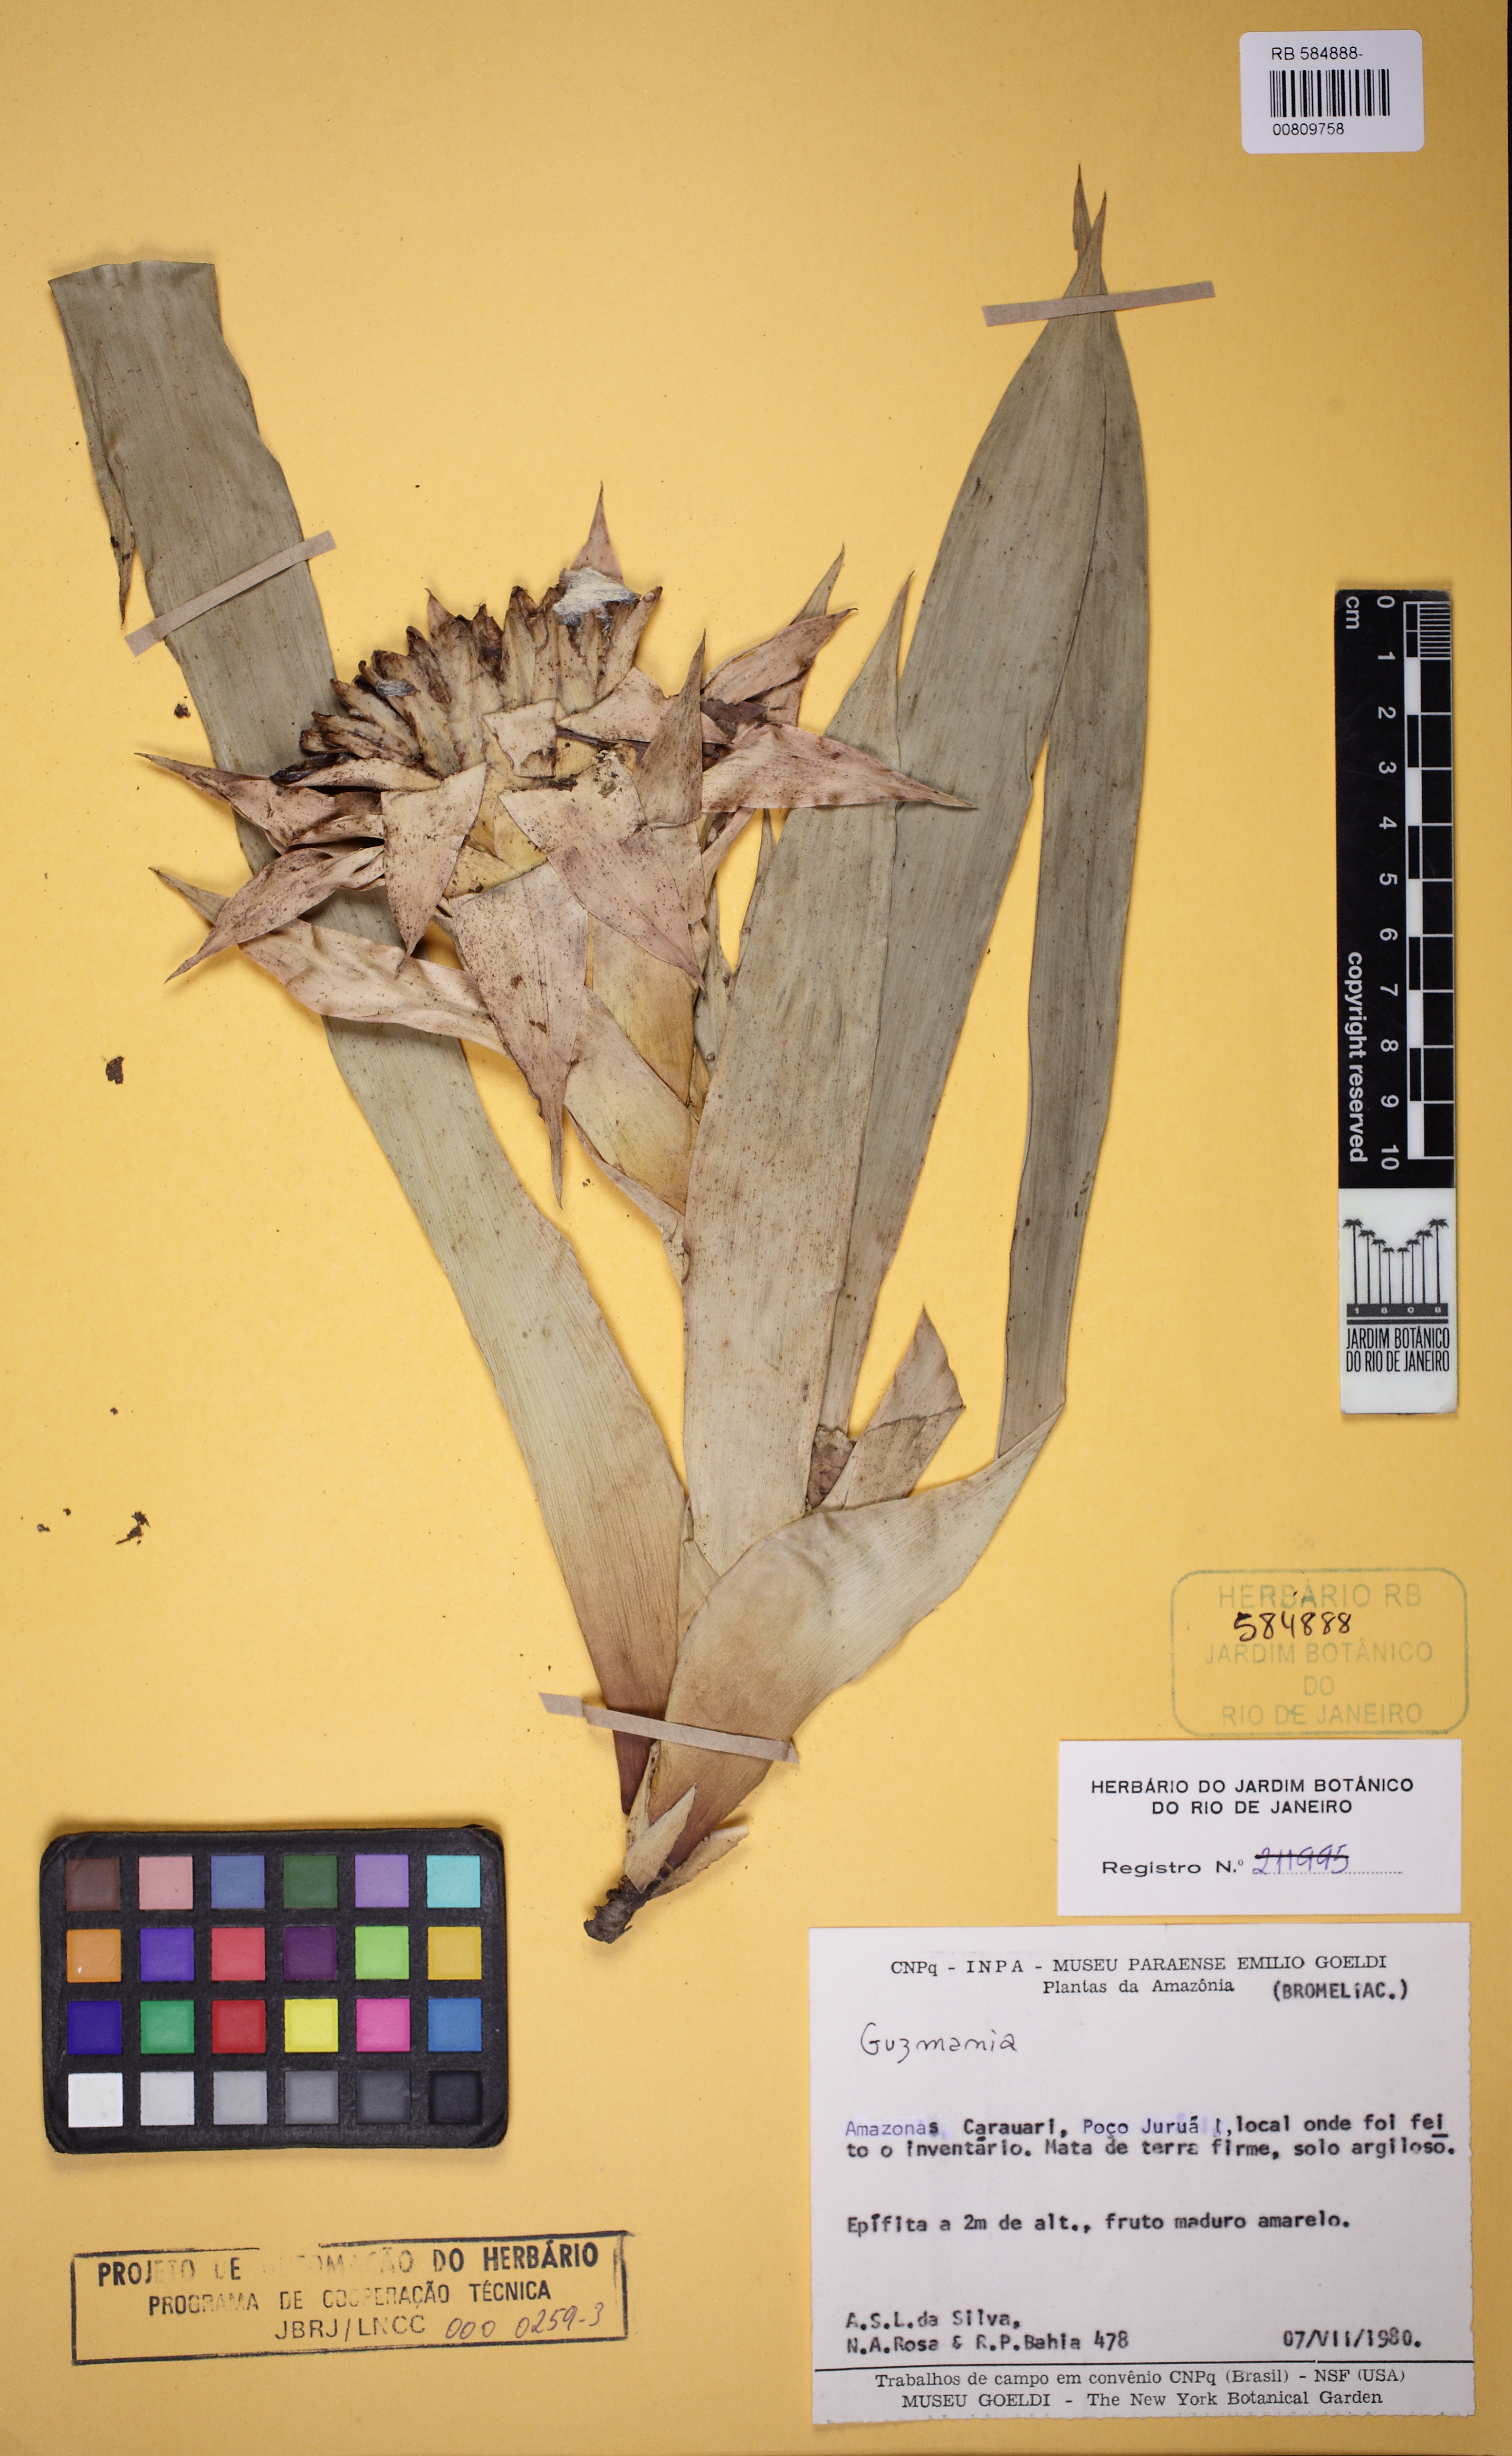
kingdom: Plantae
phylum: Tracheophyta
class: Liliopsida
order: Poales
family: Bromeliaceae
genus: Guzmania
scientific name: Guzmania
